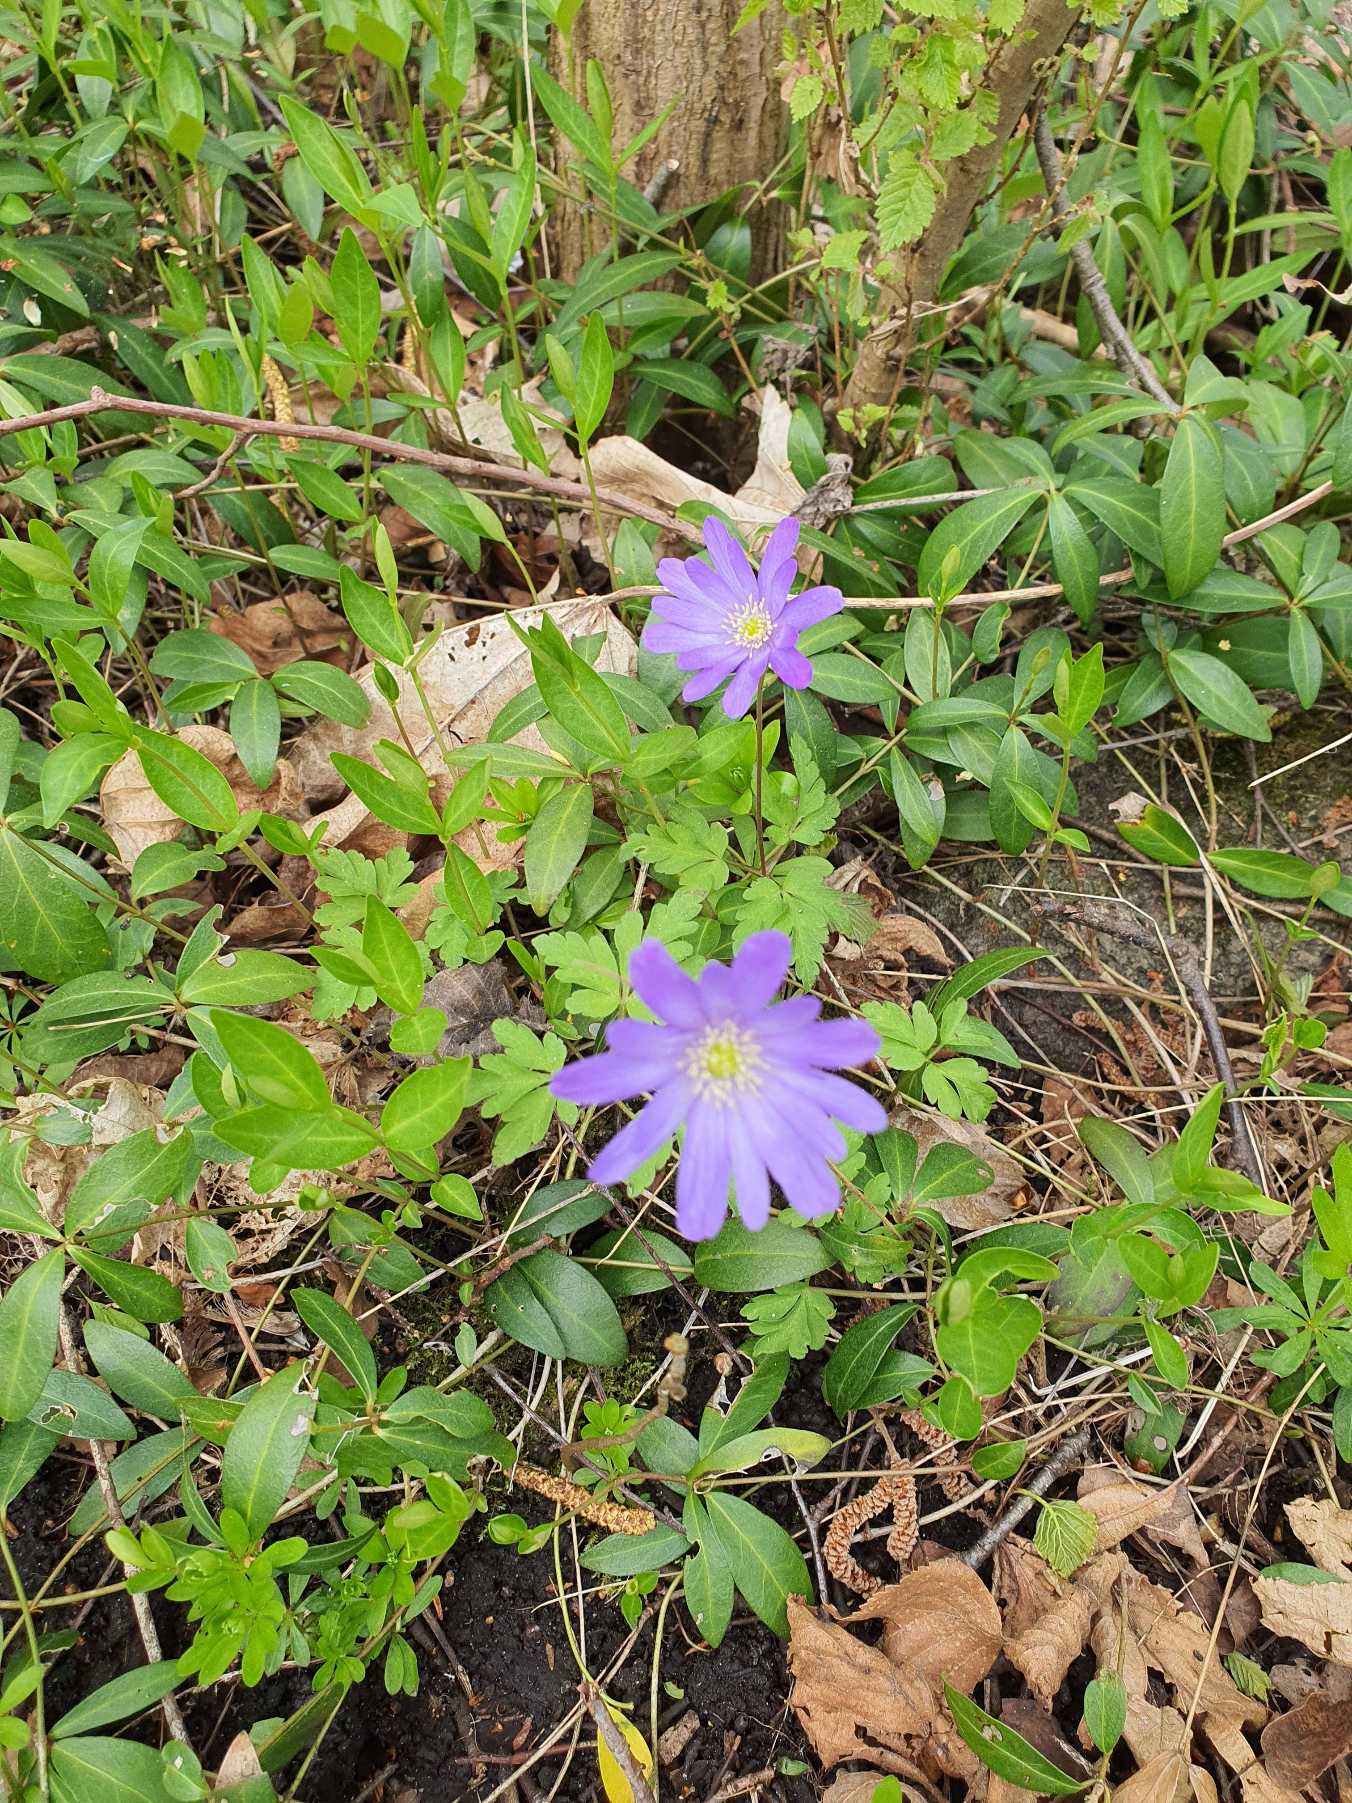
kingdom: Plantae
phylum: Tracheophyta
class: Magnoliopsida
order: Ranunculales
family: Ranunculaceae
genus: Anemone
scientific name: Anemone blanda
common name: Balkan-anemone
